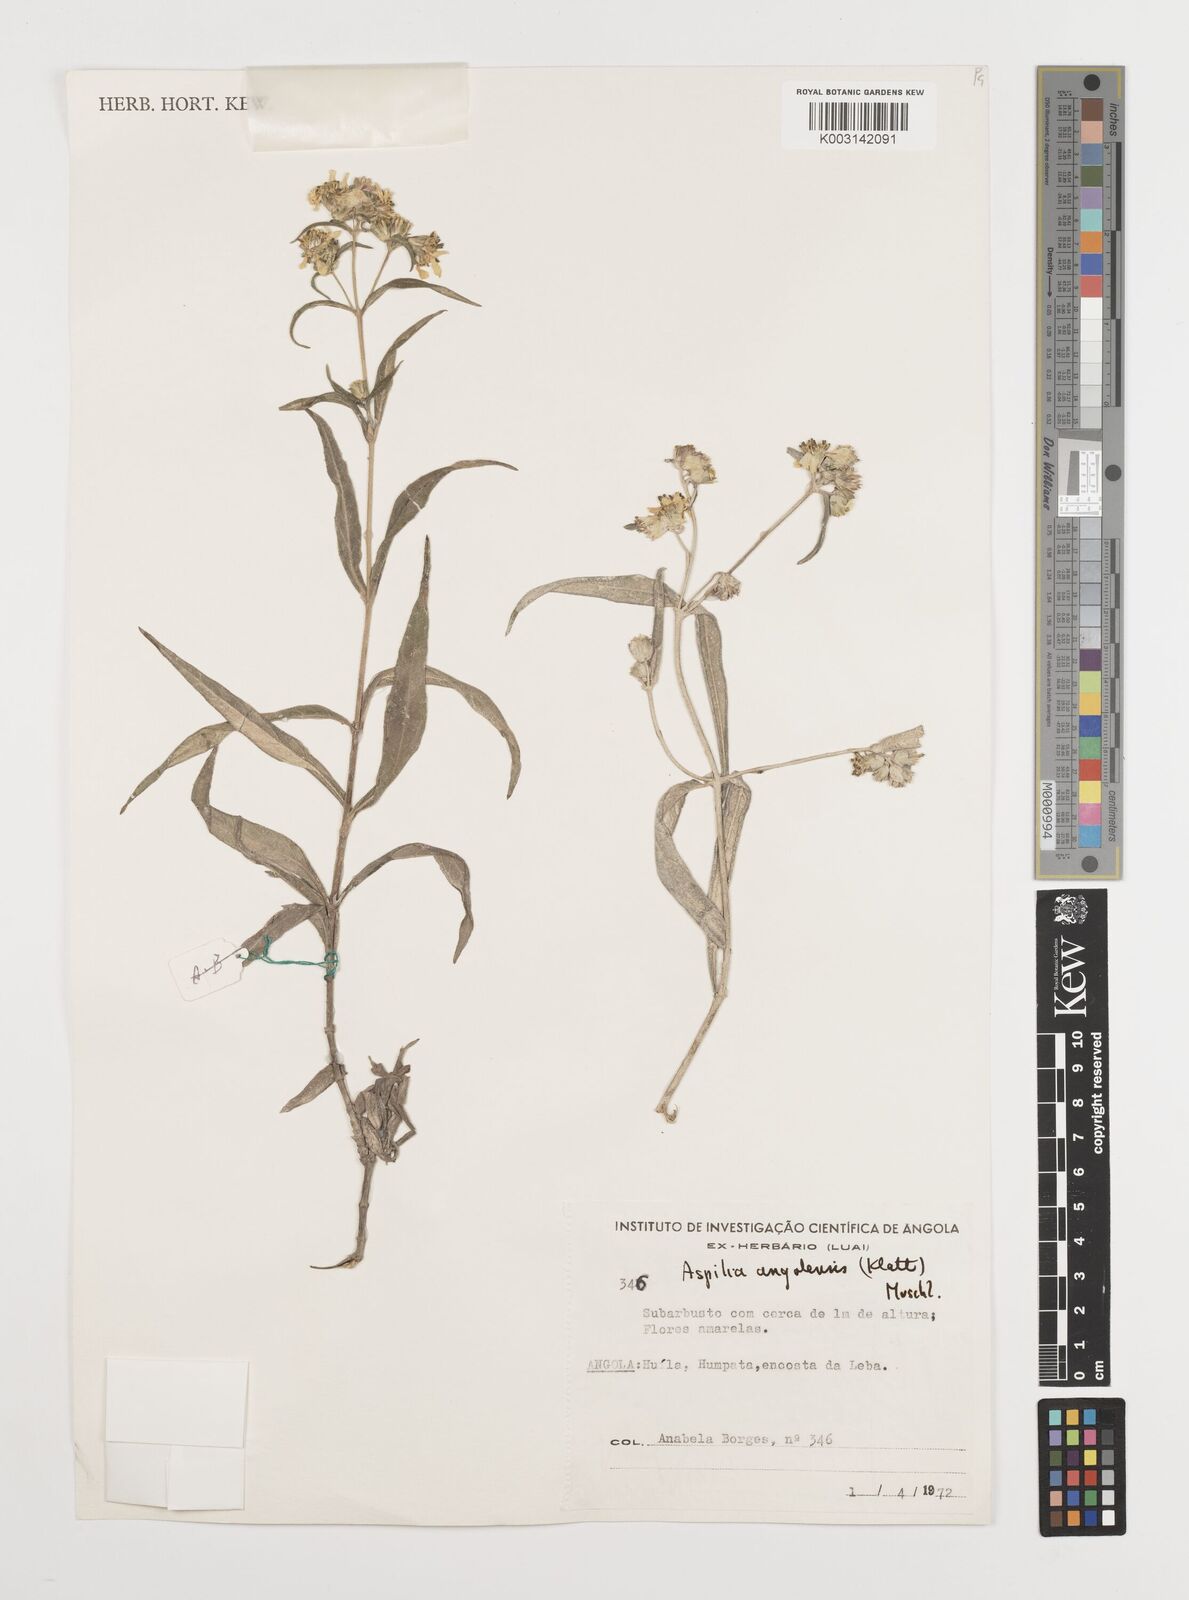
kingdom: Plantae
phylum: Tracheophyta
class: Magnoliopsida
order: Asterales
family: Asteraceae
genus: Aspilia
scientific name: Aspilia angolensis
